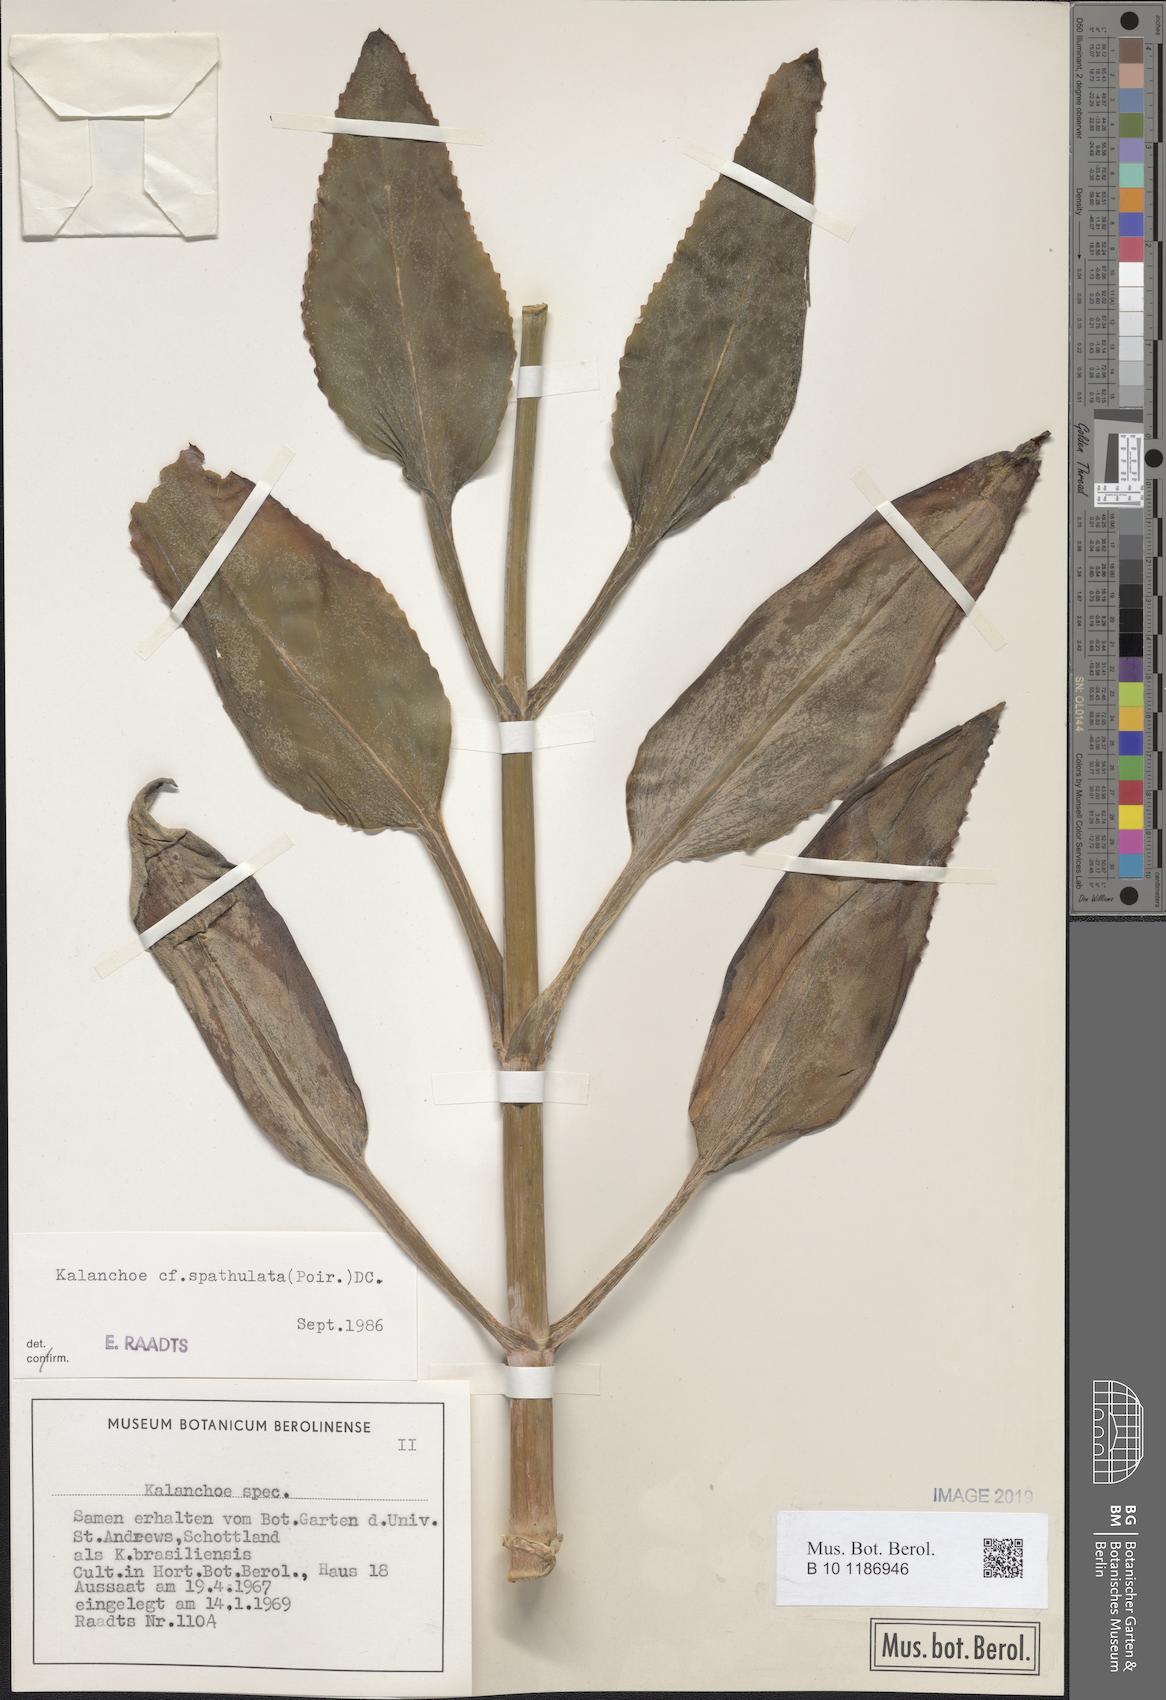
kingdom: Plantae
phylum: Tracheophyta
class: Magnoliopsida
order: Saxifragales
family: Crassulaceae
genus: Kalanchoe
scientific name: Kalanchoe integra
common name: Neverdie
